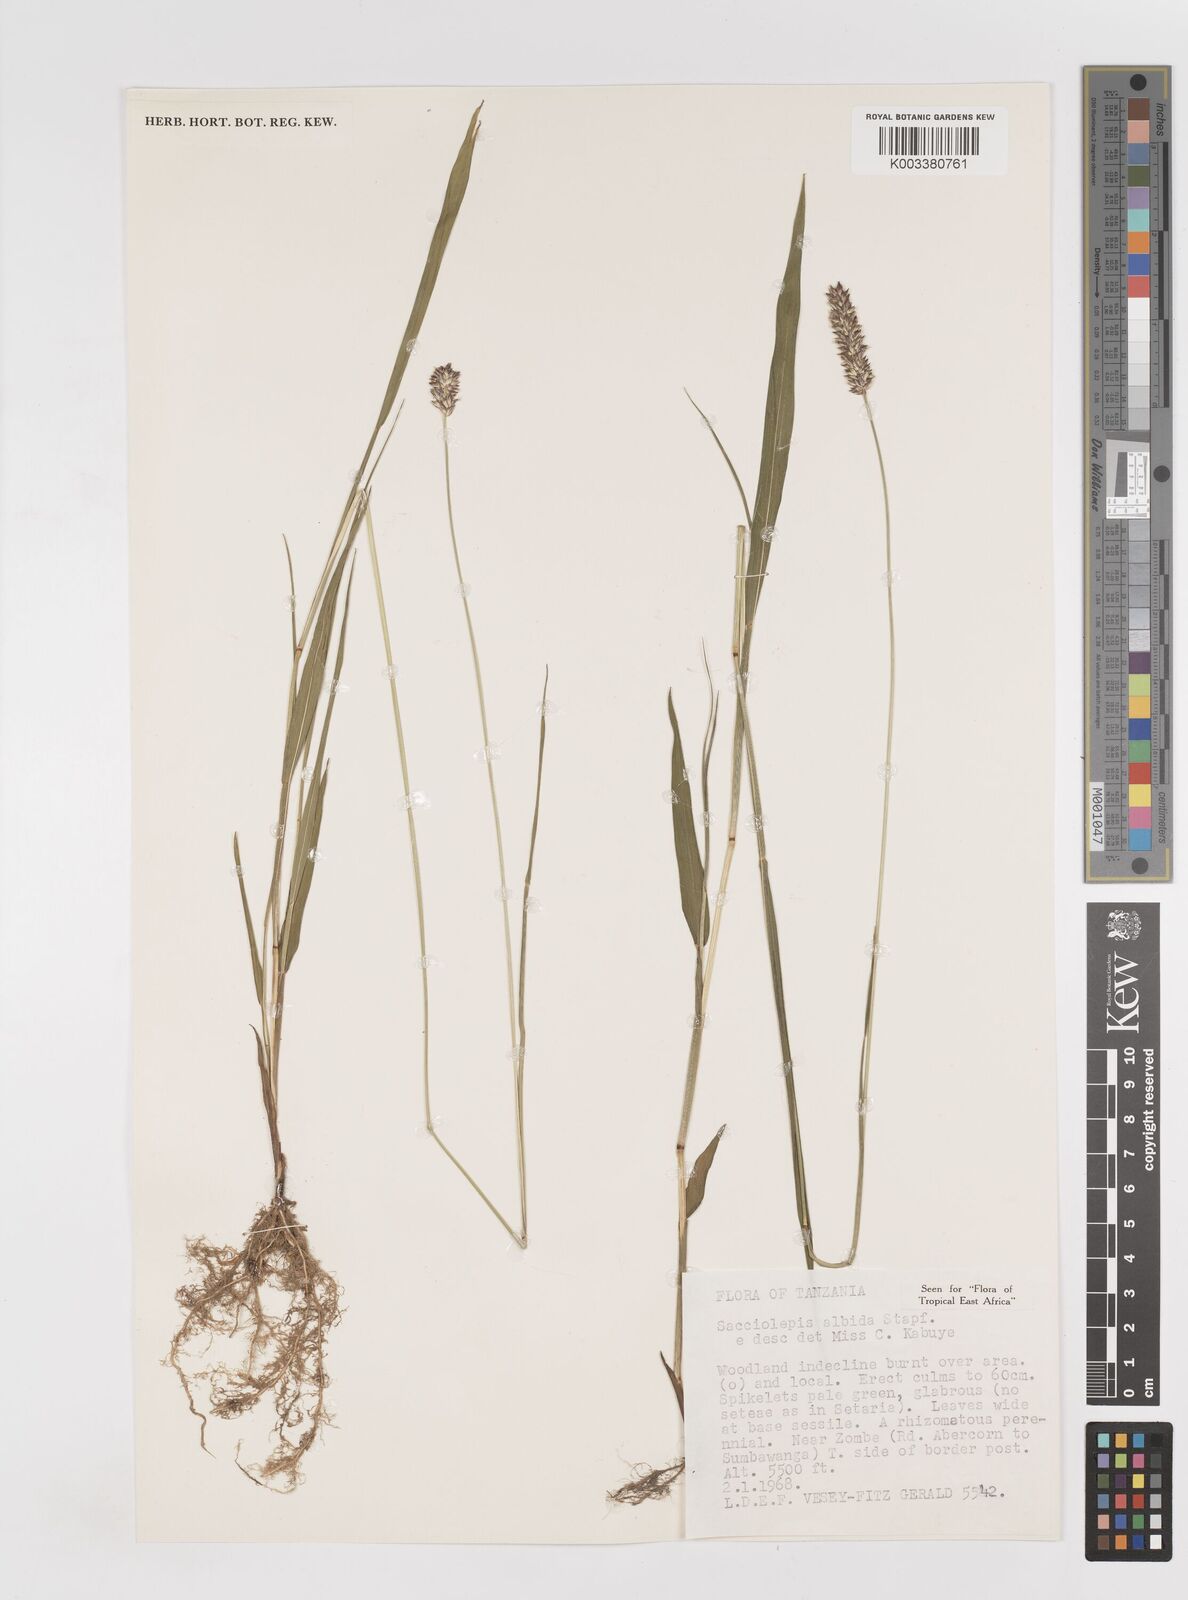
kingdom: Plantae
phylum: Tracheophyta
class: Liliopsida
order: Poales
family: Poaceae
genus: Sacciolepis
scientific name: Sacciolepis seslerioides
